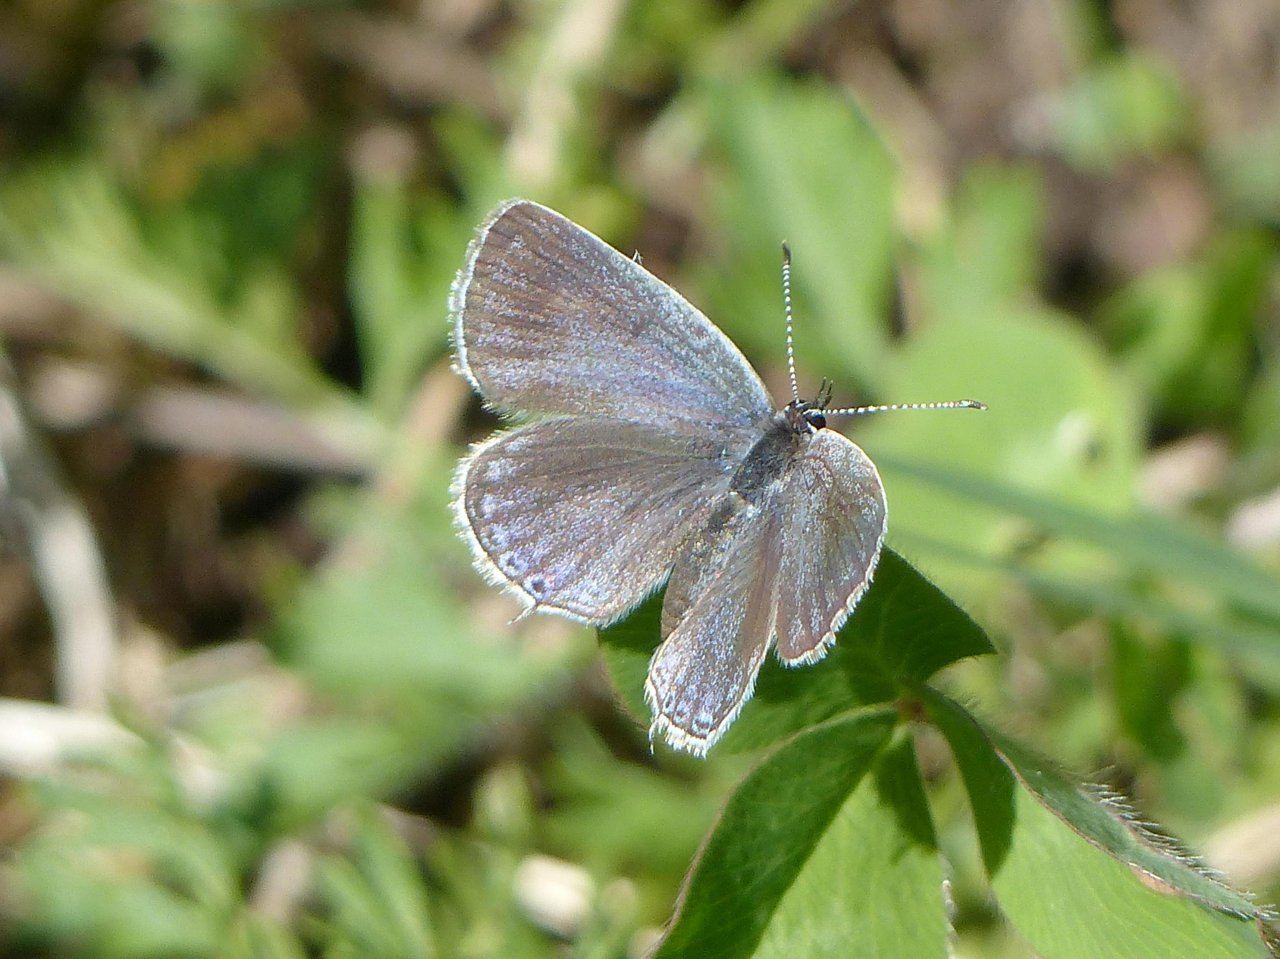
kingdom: Animalia
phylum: Arthropoda
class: Insecta
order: Lepidoptera
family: Lycaenidae
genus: Elkalyce
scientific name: Elkalyce comyntas
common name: Eastern Tailed-Blue
